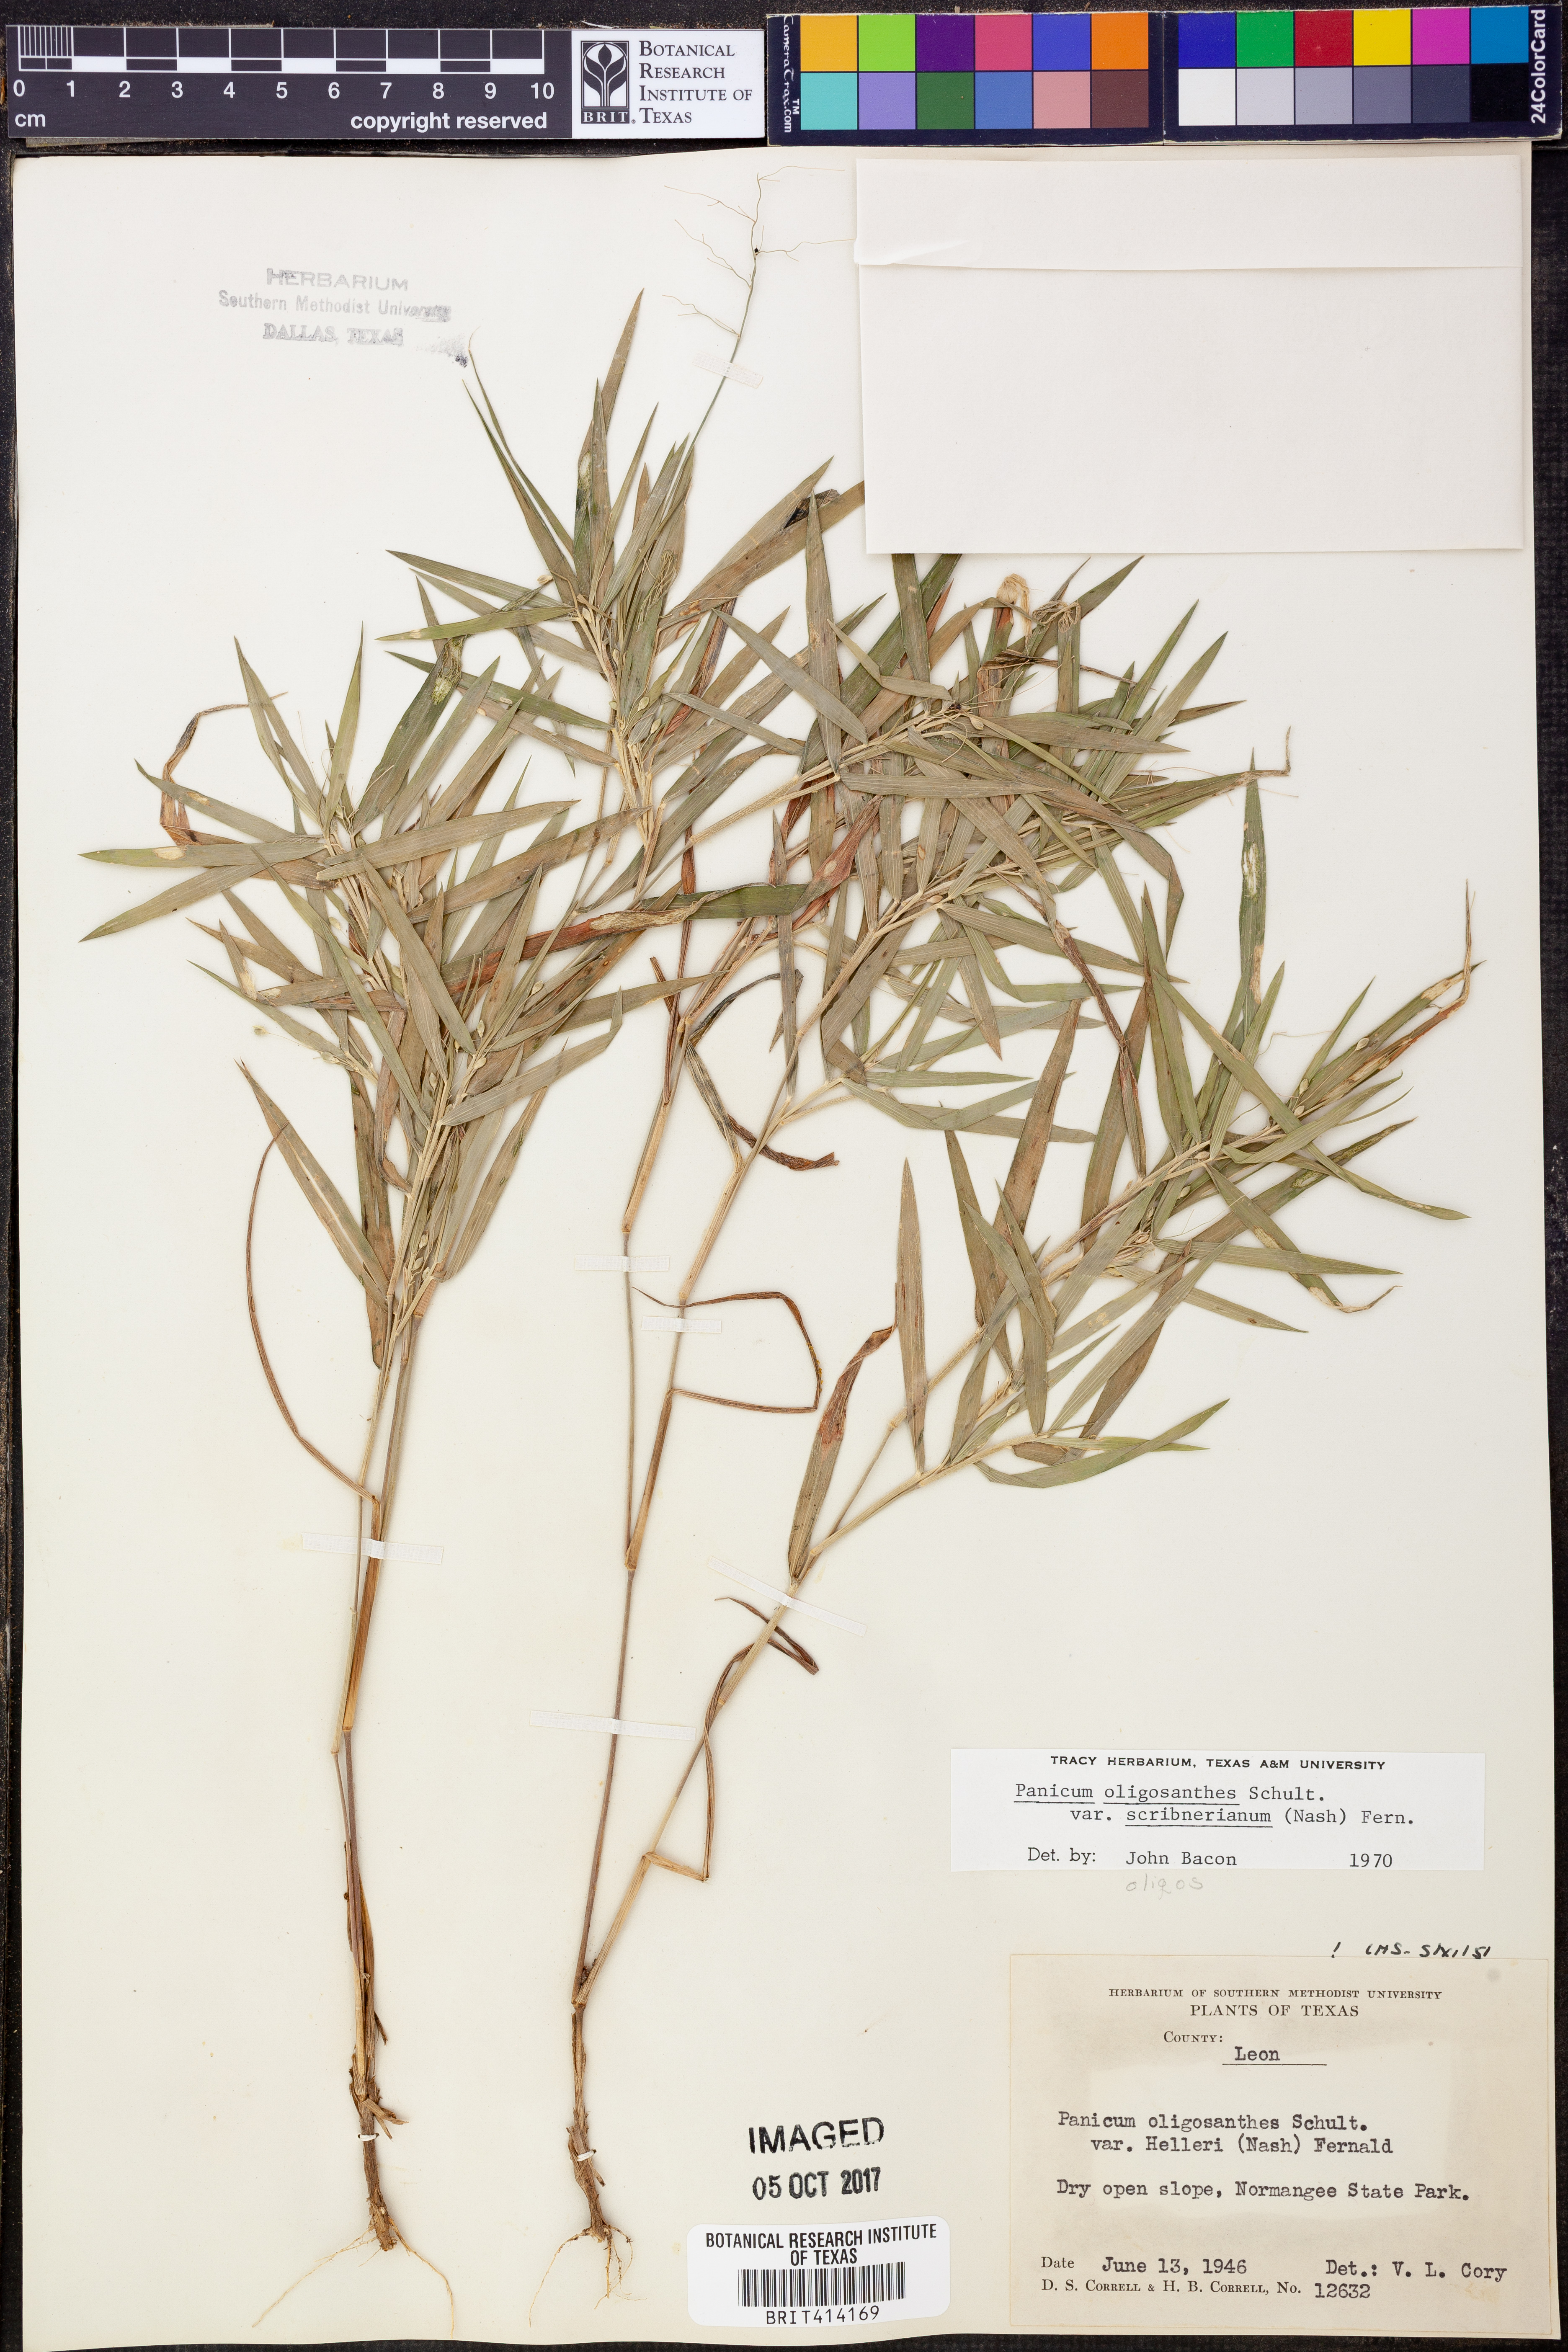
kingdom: Plantae
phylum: Tracheophyta
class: Liliopsida
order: Poales
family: Poaceae
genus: Dichanthelium
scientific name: Dichanthelium scribnerianum
